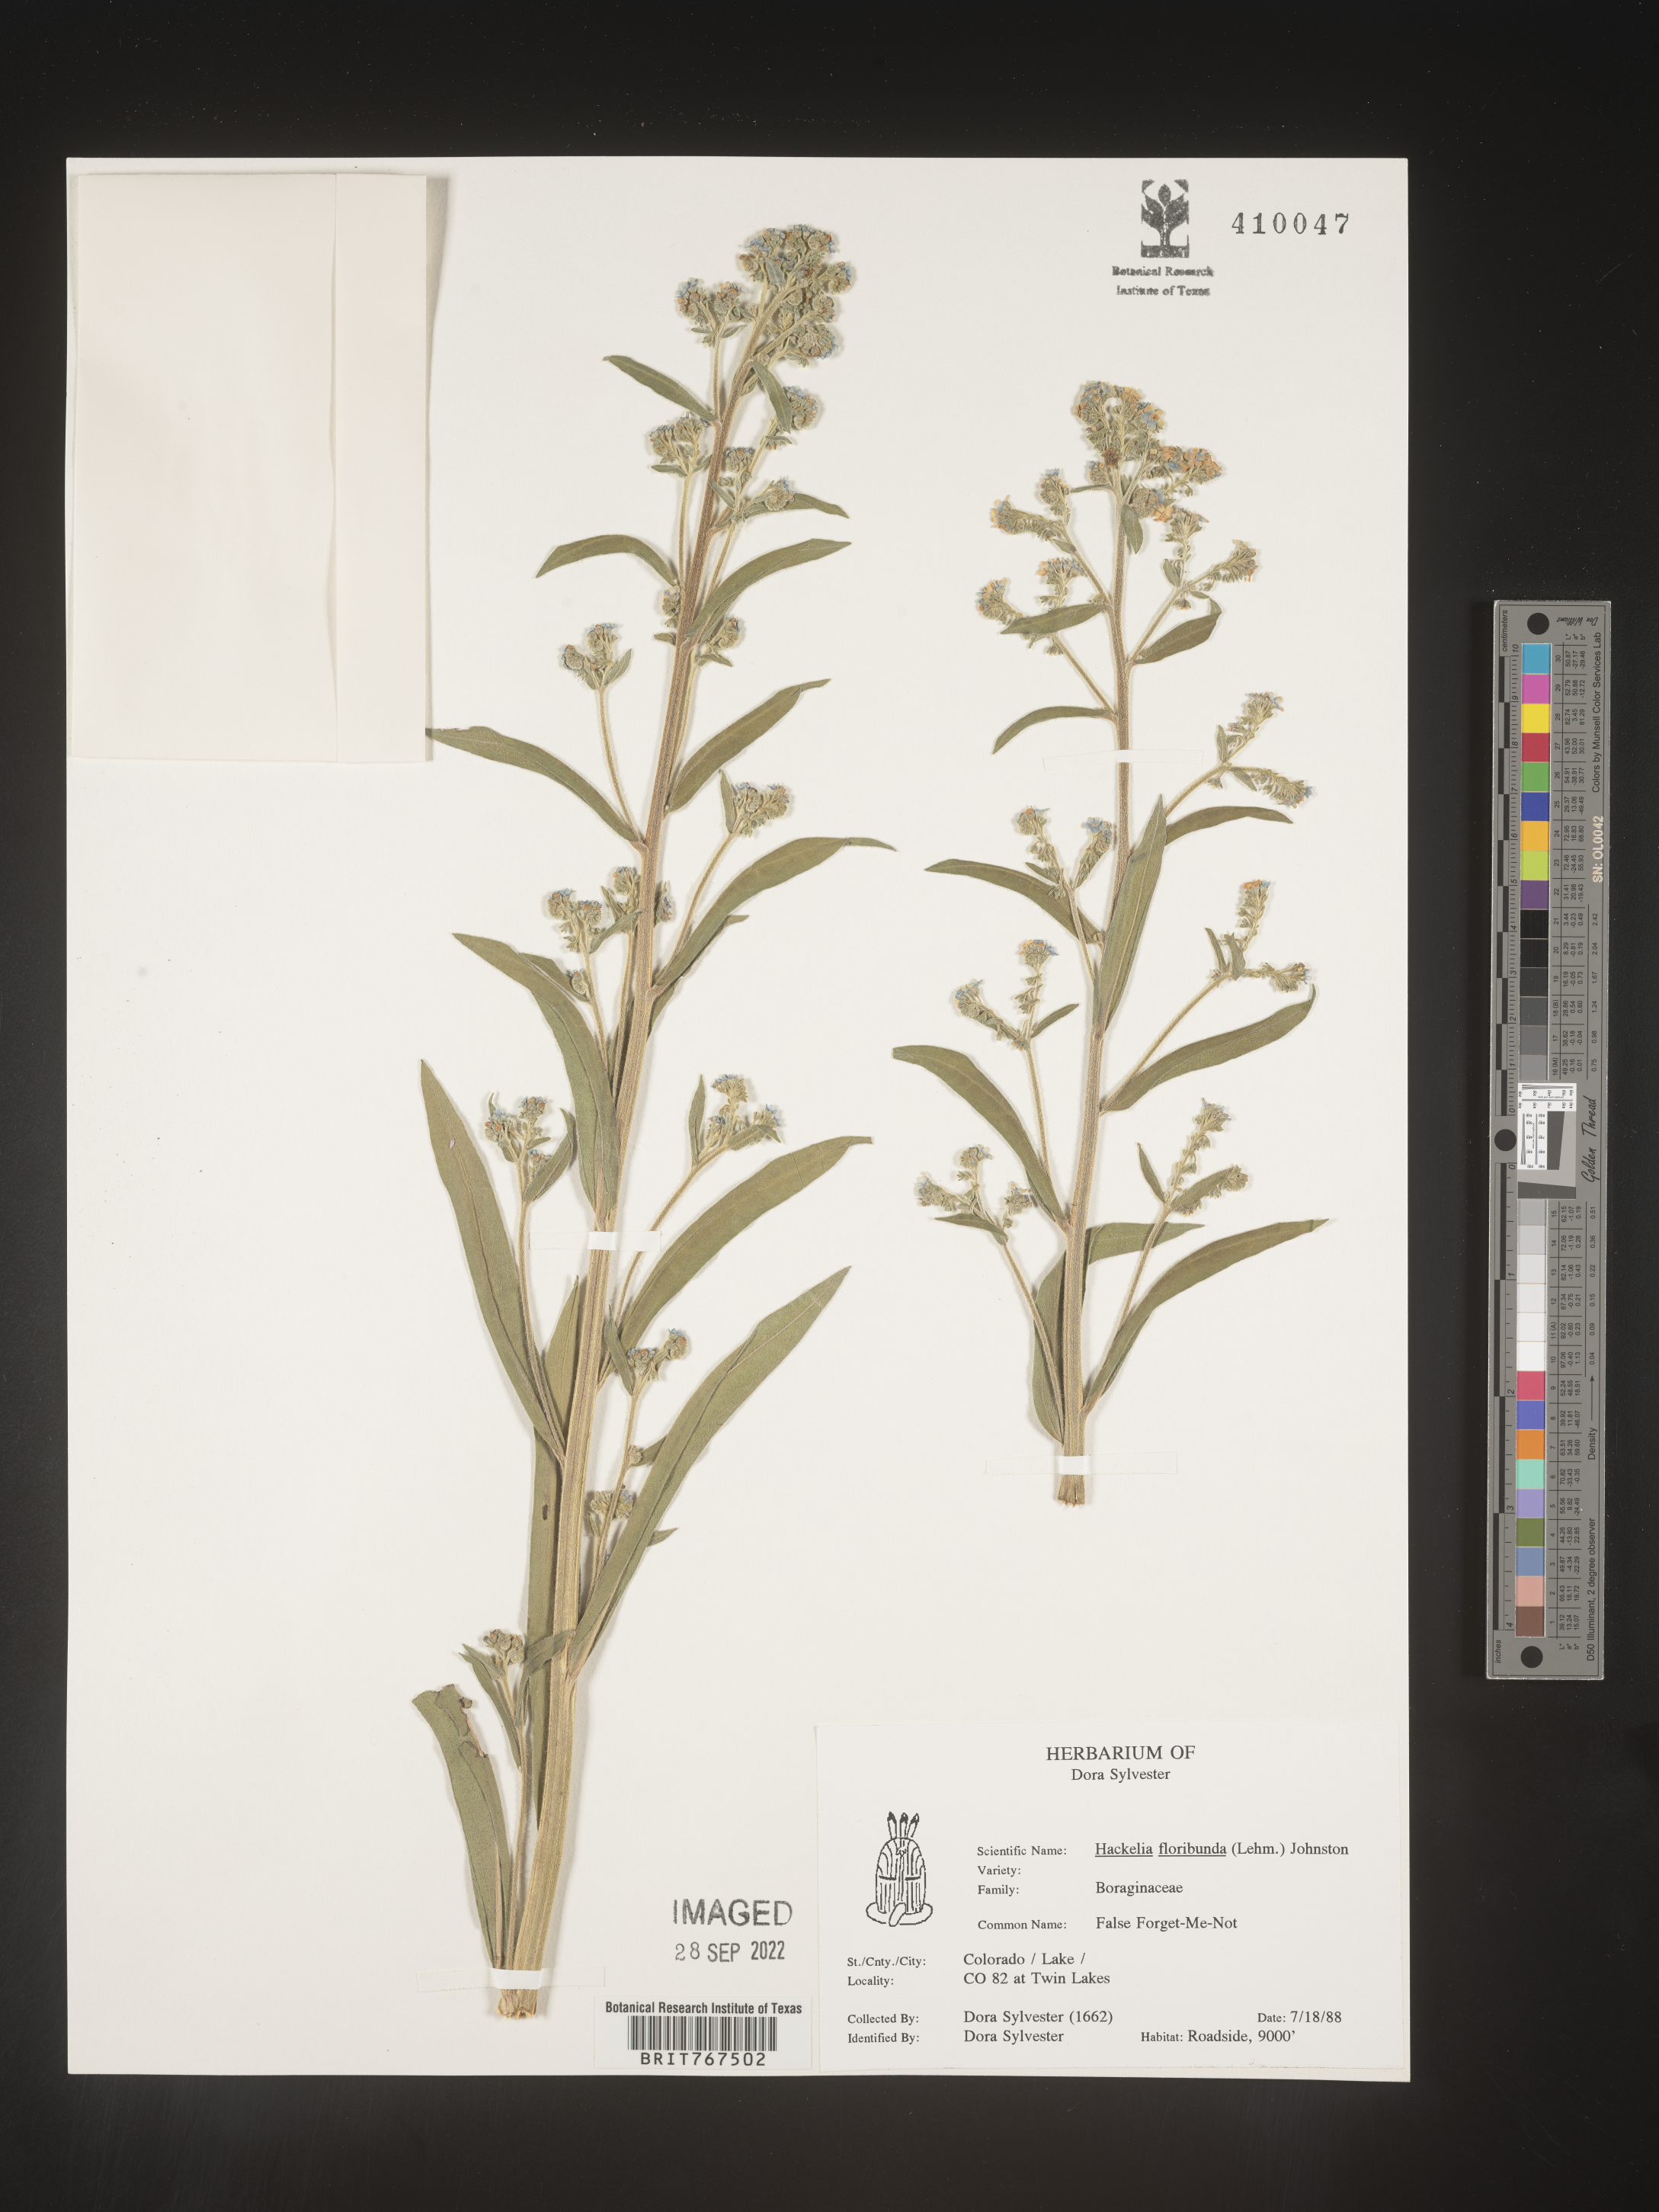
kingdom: Plantae
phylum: Tracheophyta
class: Magnoliopsida
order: Boraginales
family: Boraginaceae
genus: Hackelia
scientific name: Hackelia floribunda
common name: Large-flowered stickseed
